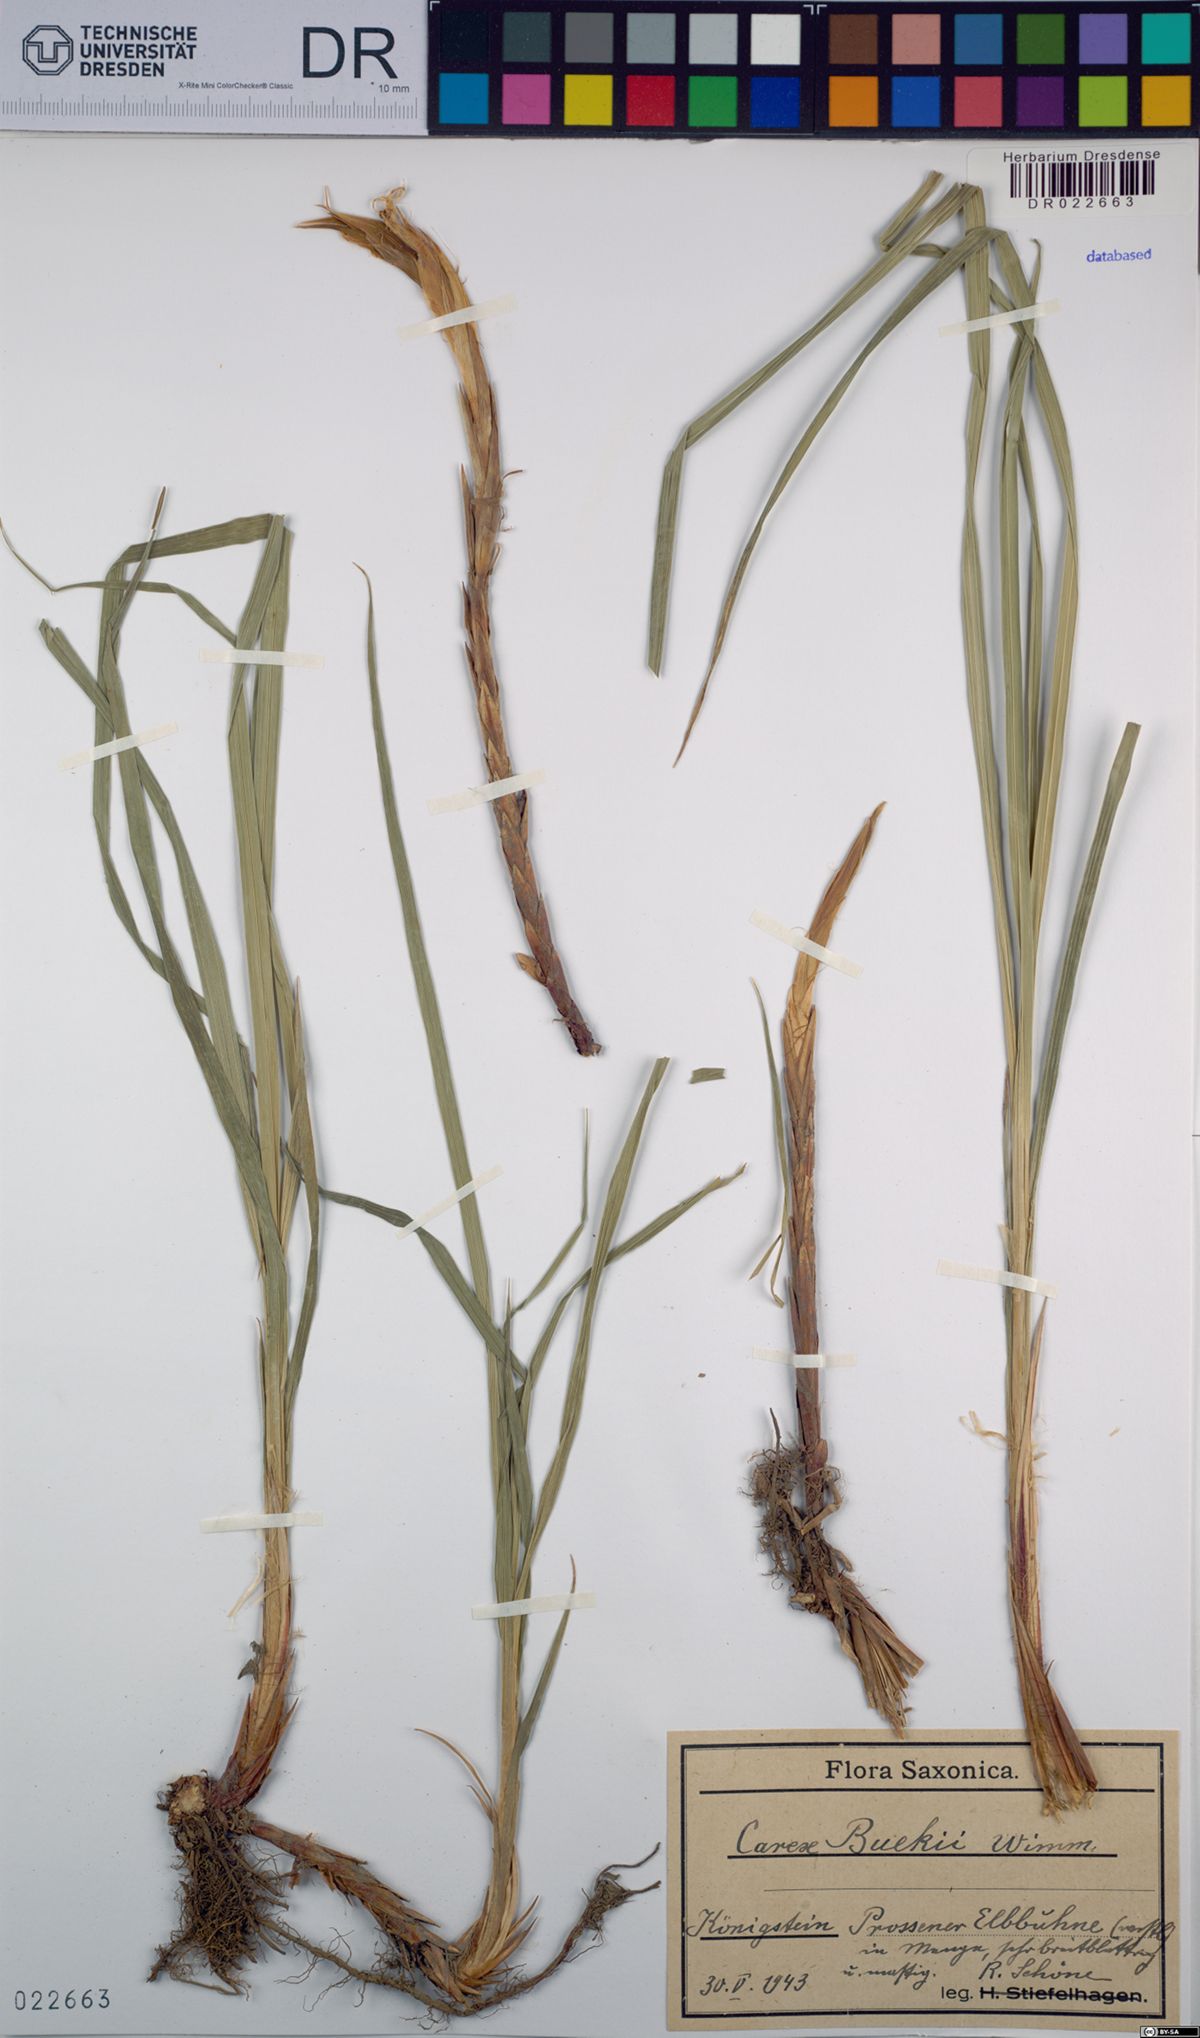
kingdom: Plantae
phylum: Tracheophyta
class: Liliopsida
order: Poales
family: Cyperaceae
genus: Carex
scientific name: Carex buekii
